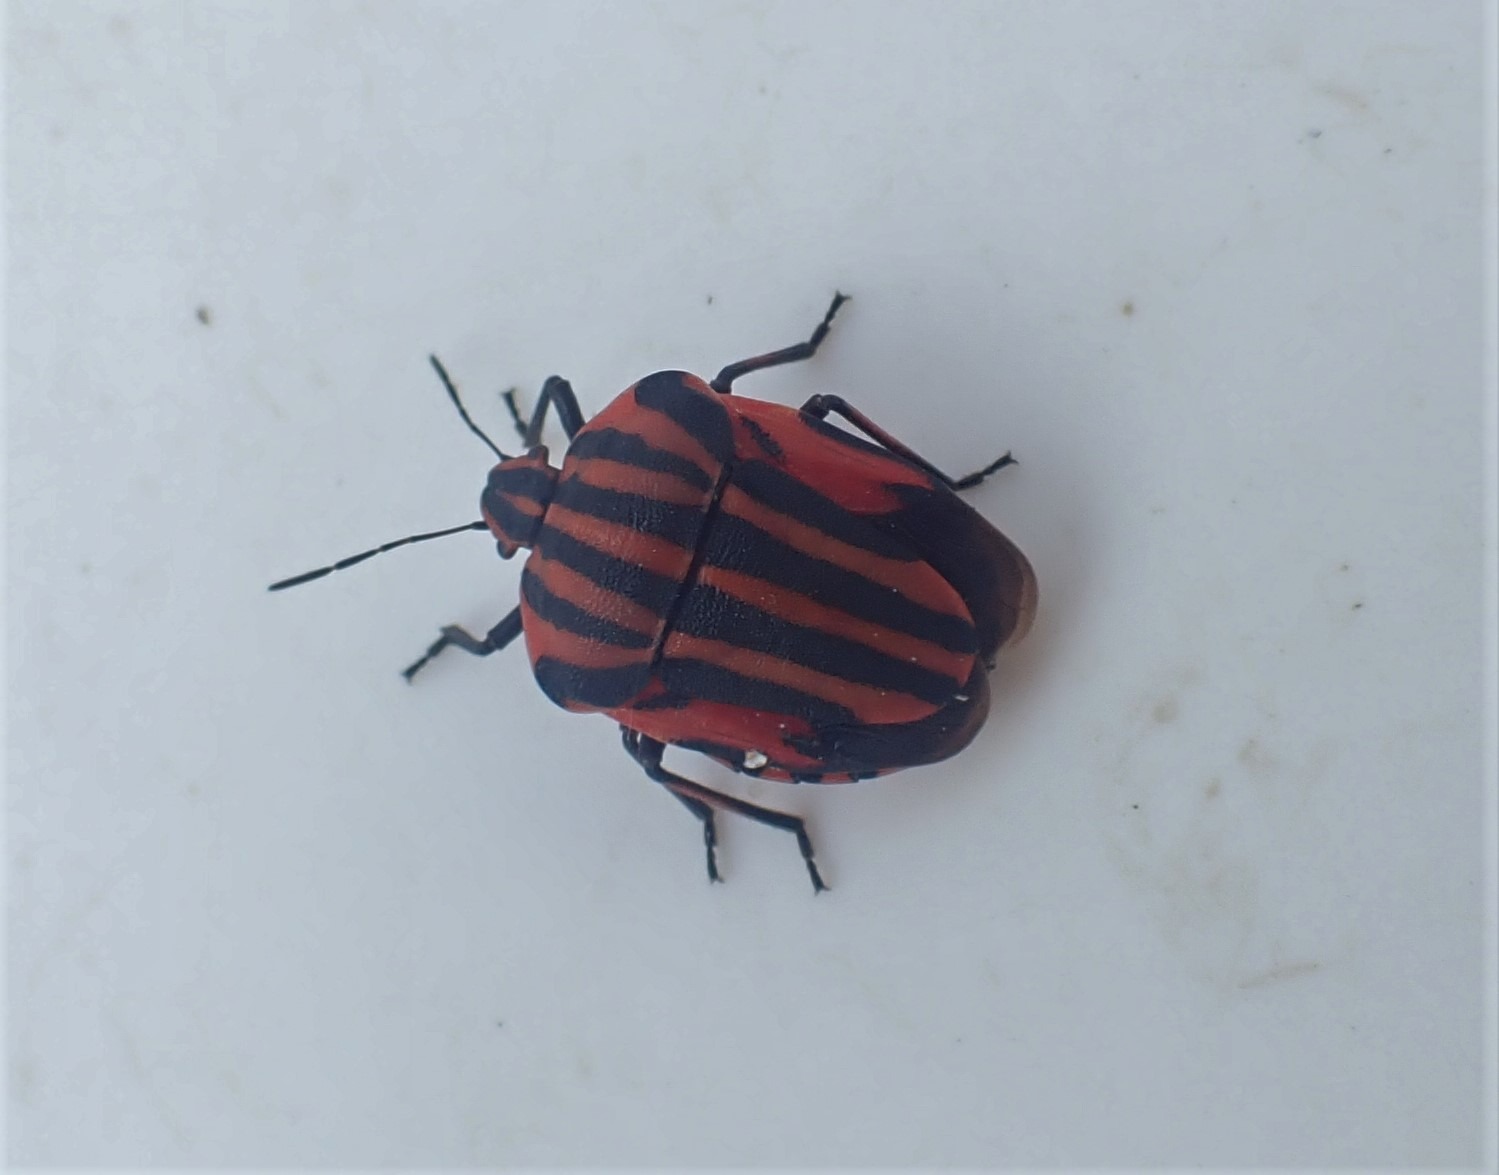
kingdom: Animalia
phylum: Arthropoda
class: Insecta
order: Hemiptera
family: Pentatomidae
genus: Graphosoma
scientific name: Graphosoma italicum
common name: Stribetæge
